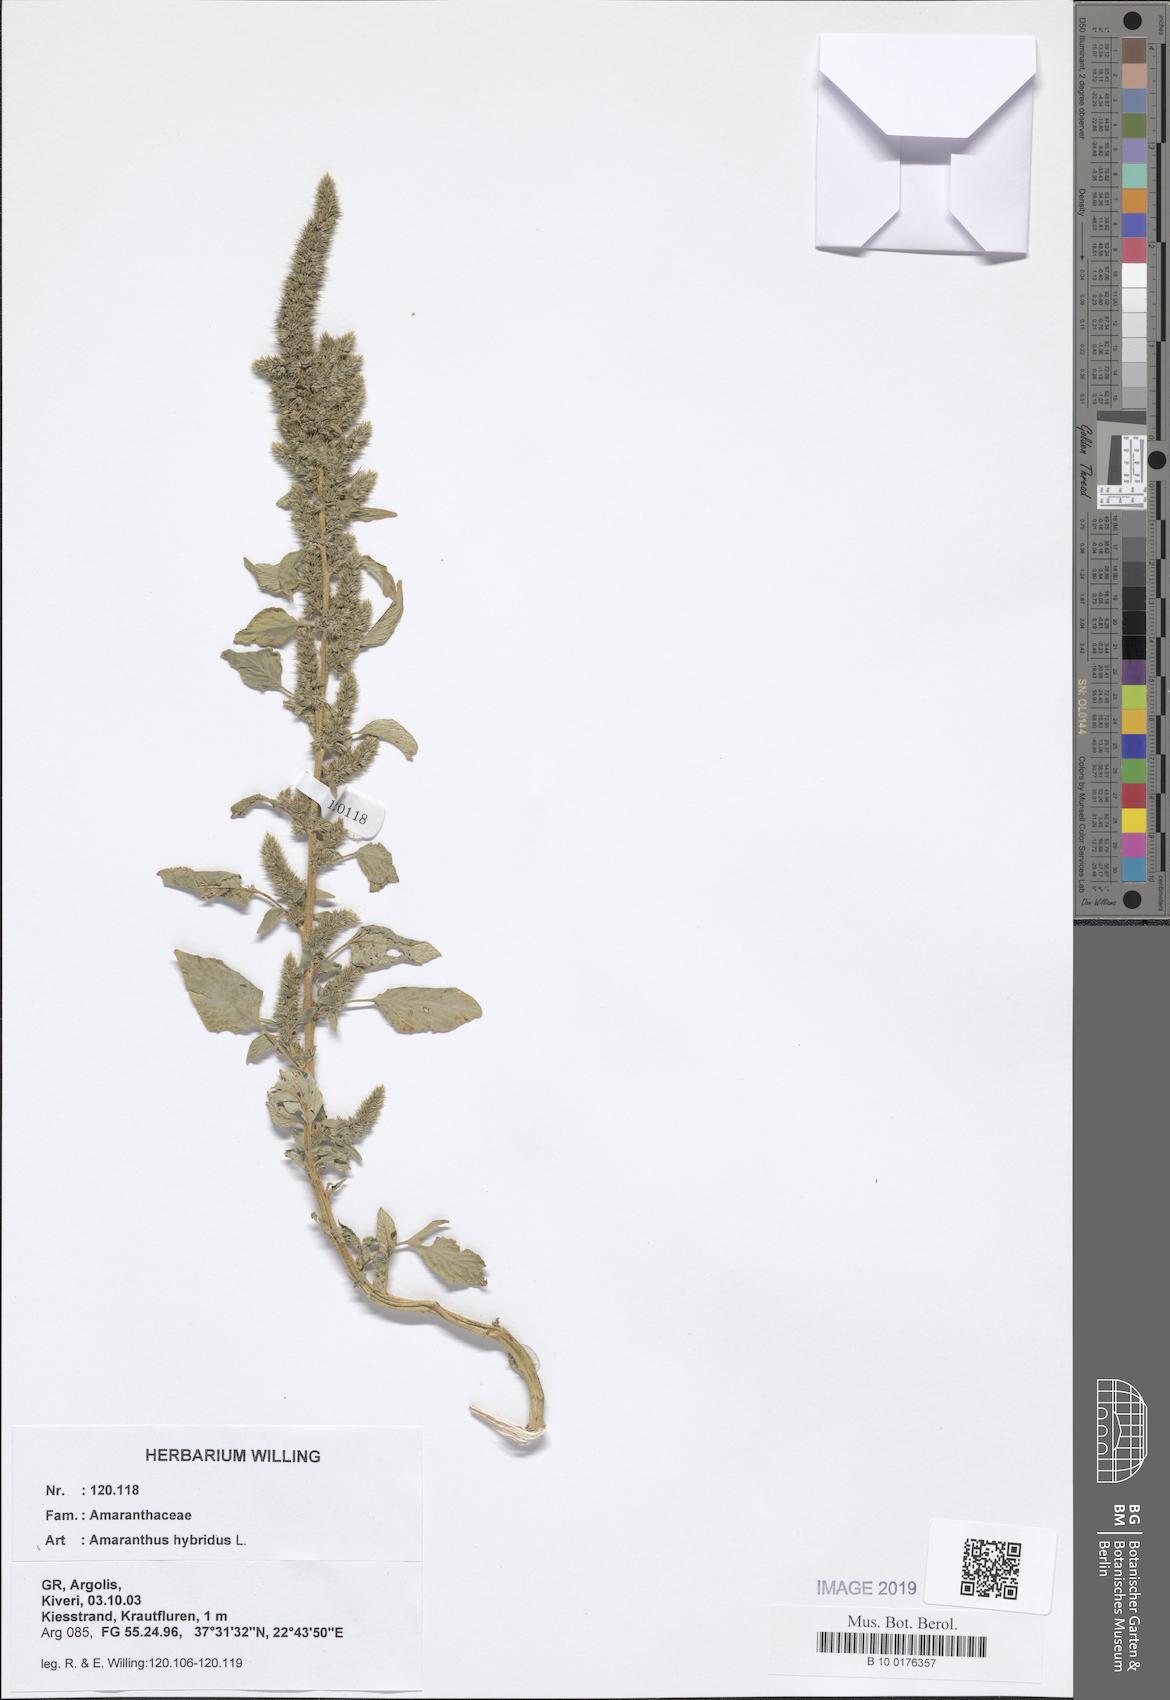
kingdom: Plantae
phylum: Tracheophyta
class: Magnoliopsida
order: Caryophyllales
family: Amaranthaceae
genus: Amaranthus
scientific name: Amaranthus hybridus
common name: Green amaranth
